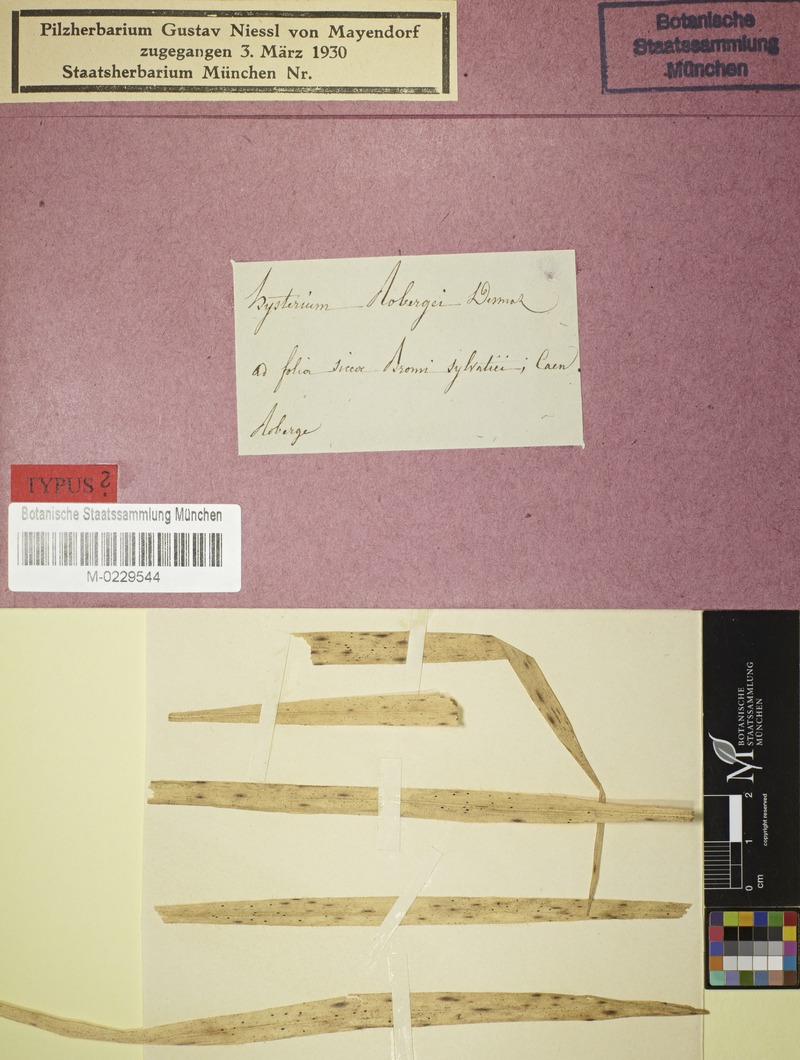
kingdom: Fungi
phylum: Ascomycota
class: Leotiomycetes
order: Rhytismatales
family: Rhytismataceae
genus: Lophodermium
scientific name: Lophodermium robergei
